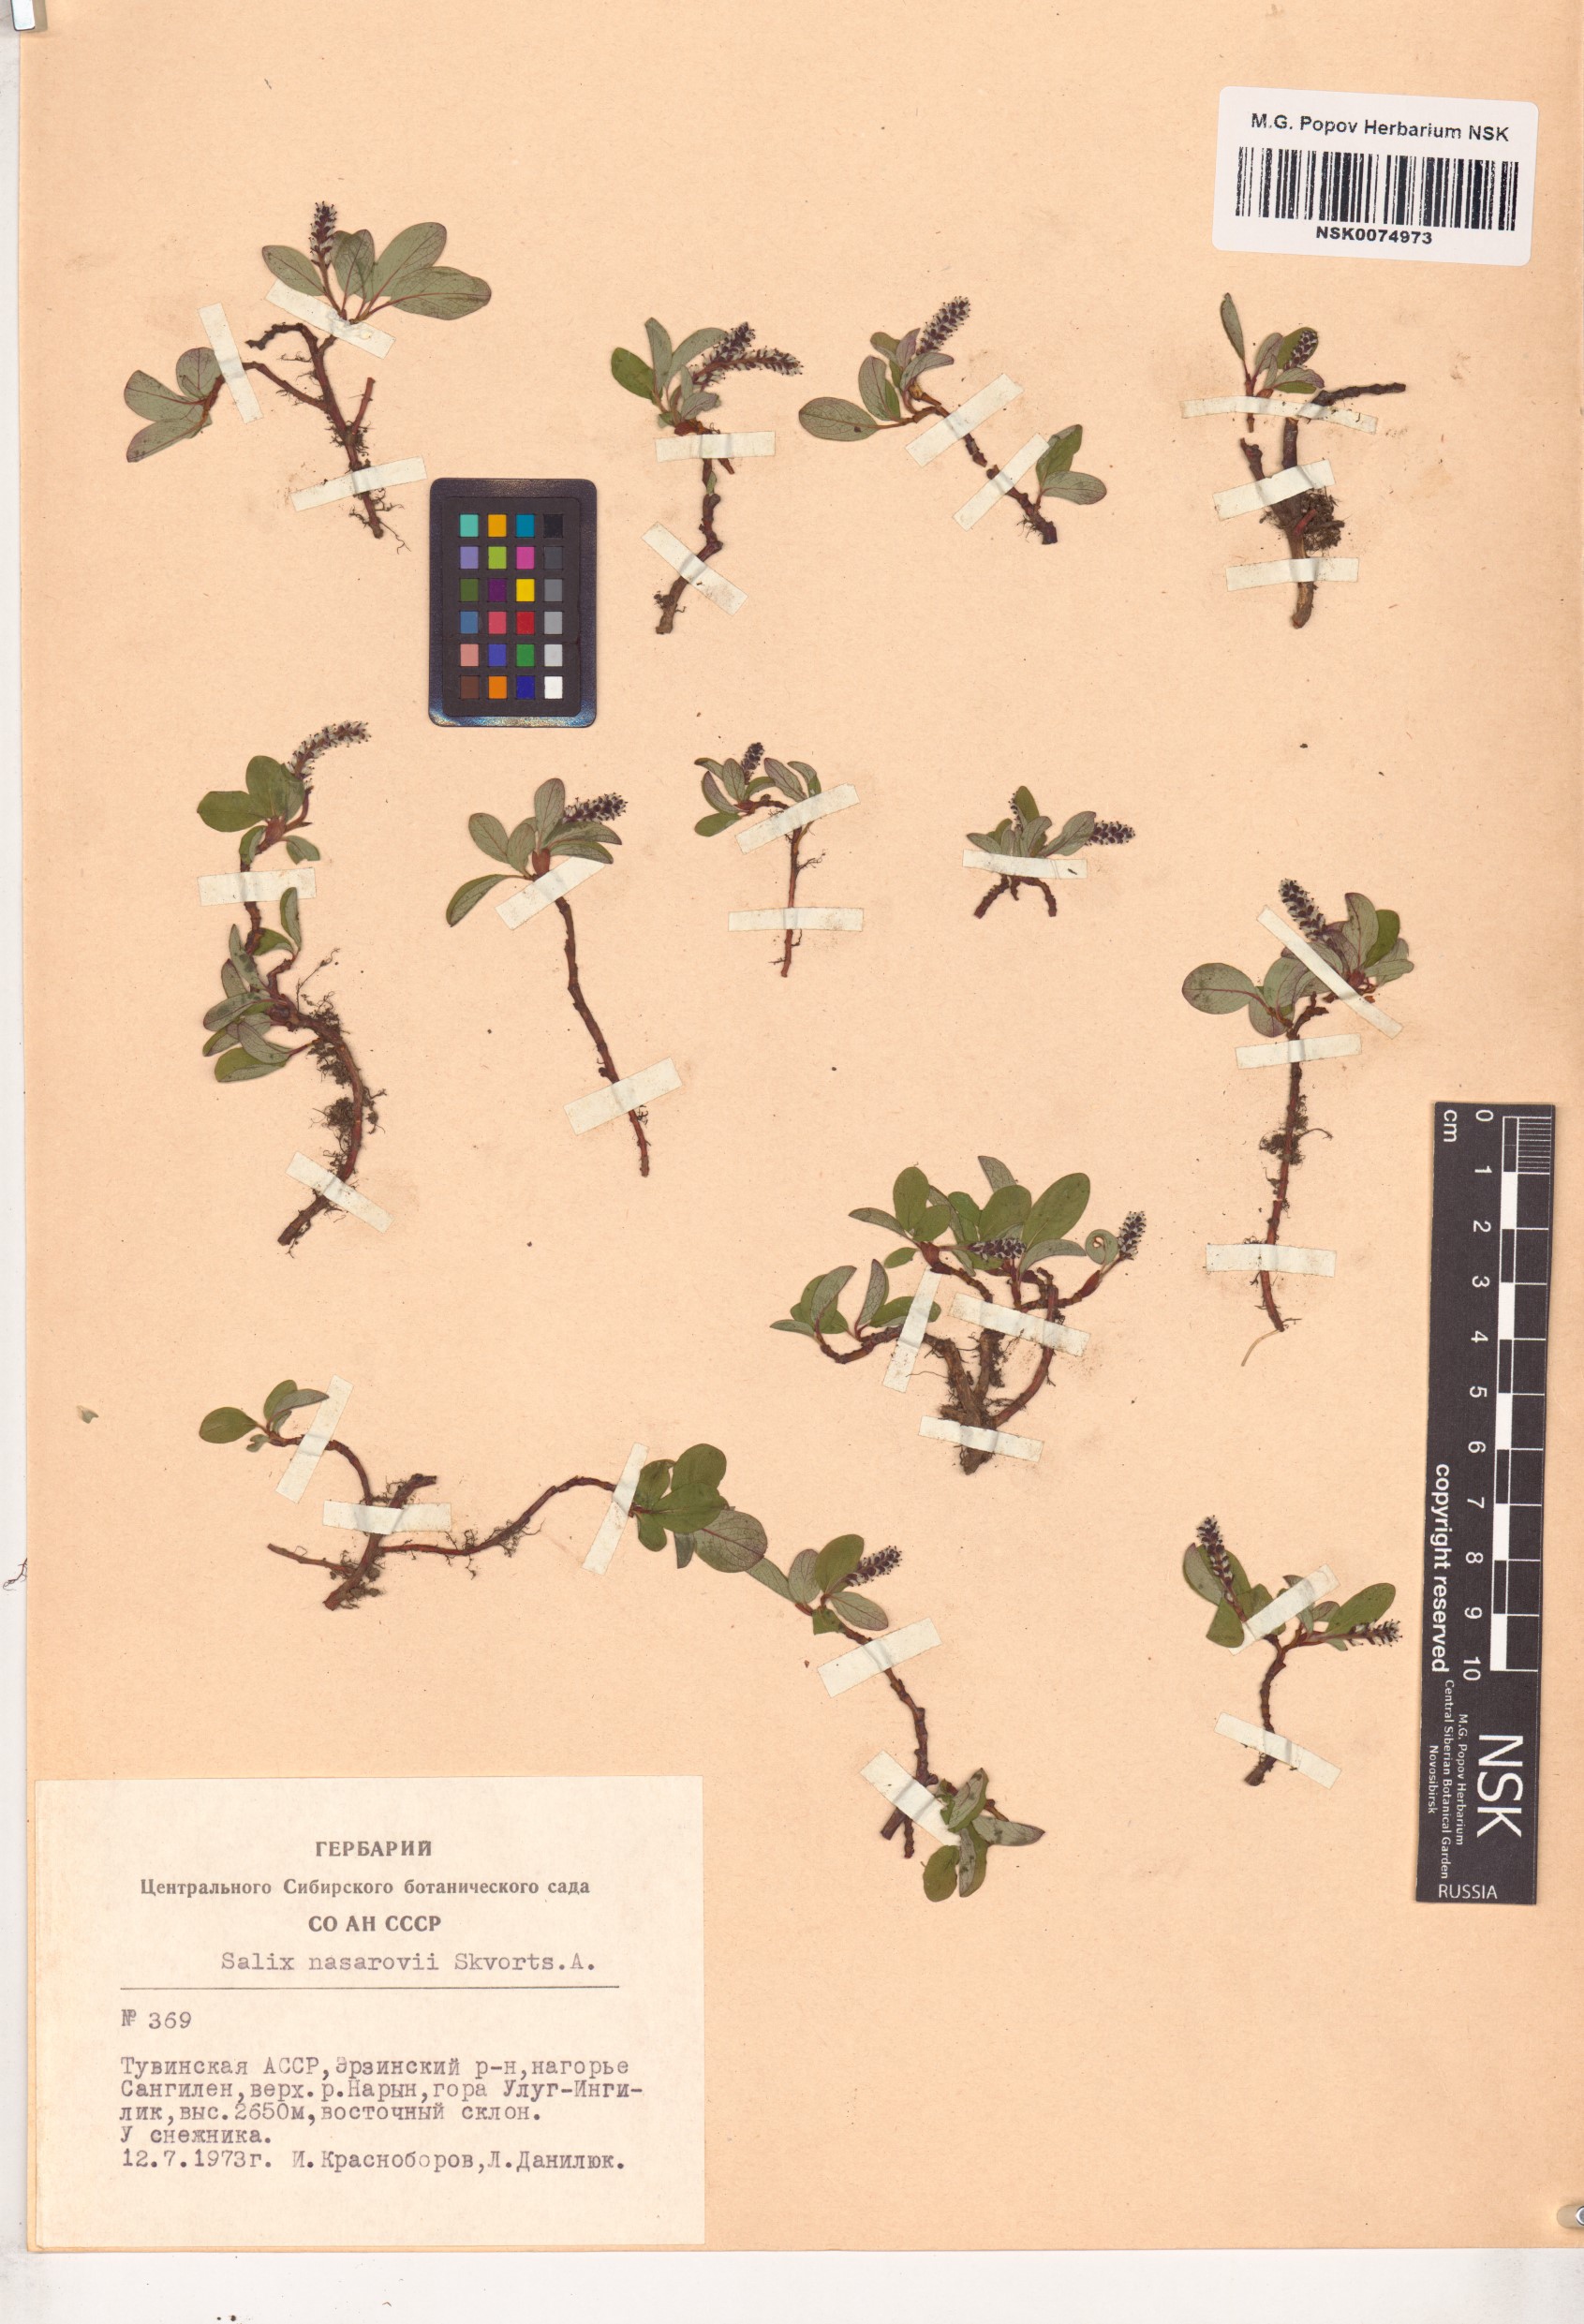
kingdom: Plantae
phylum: Tracheophyta
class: Magnoliopsida
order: Malpighiales
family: Salicaceae
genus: Salix
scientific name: Salix nasarovii
